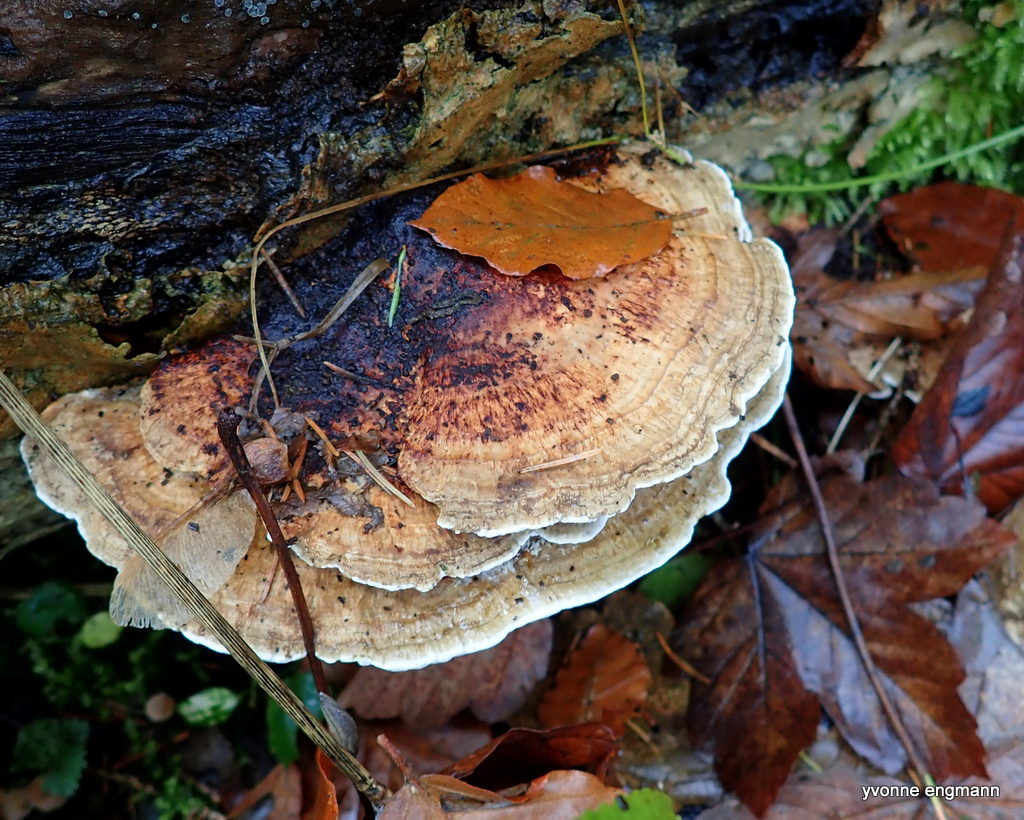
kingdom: Fungi
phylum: Basidiomycota
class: Agaricomycetes
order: Polyporales
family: Polyporaceae
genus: Daedaleopsis
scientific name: Daedaleopsis confragosa
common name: rødmende læderporesvamp
